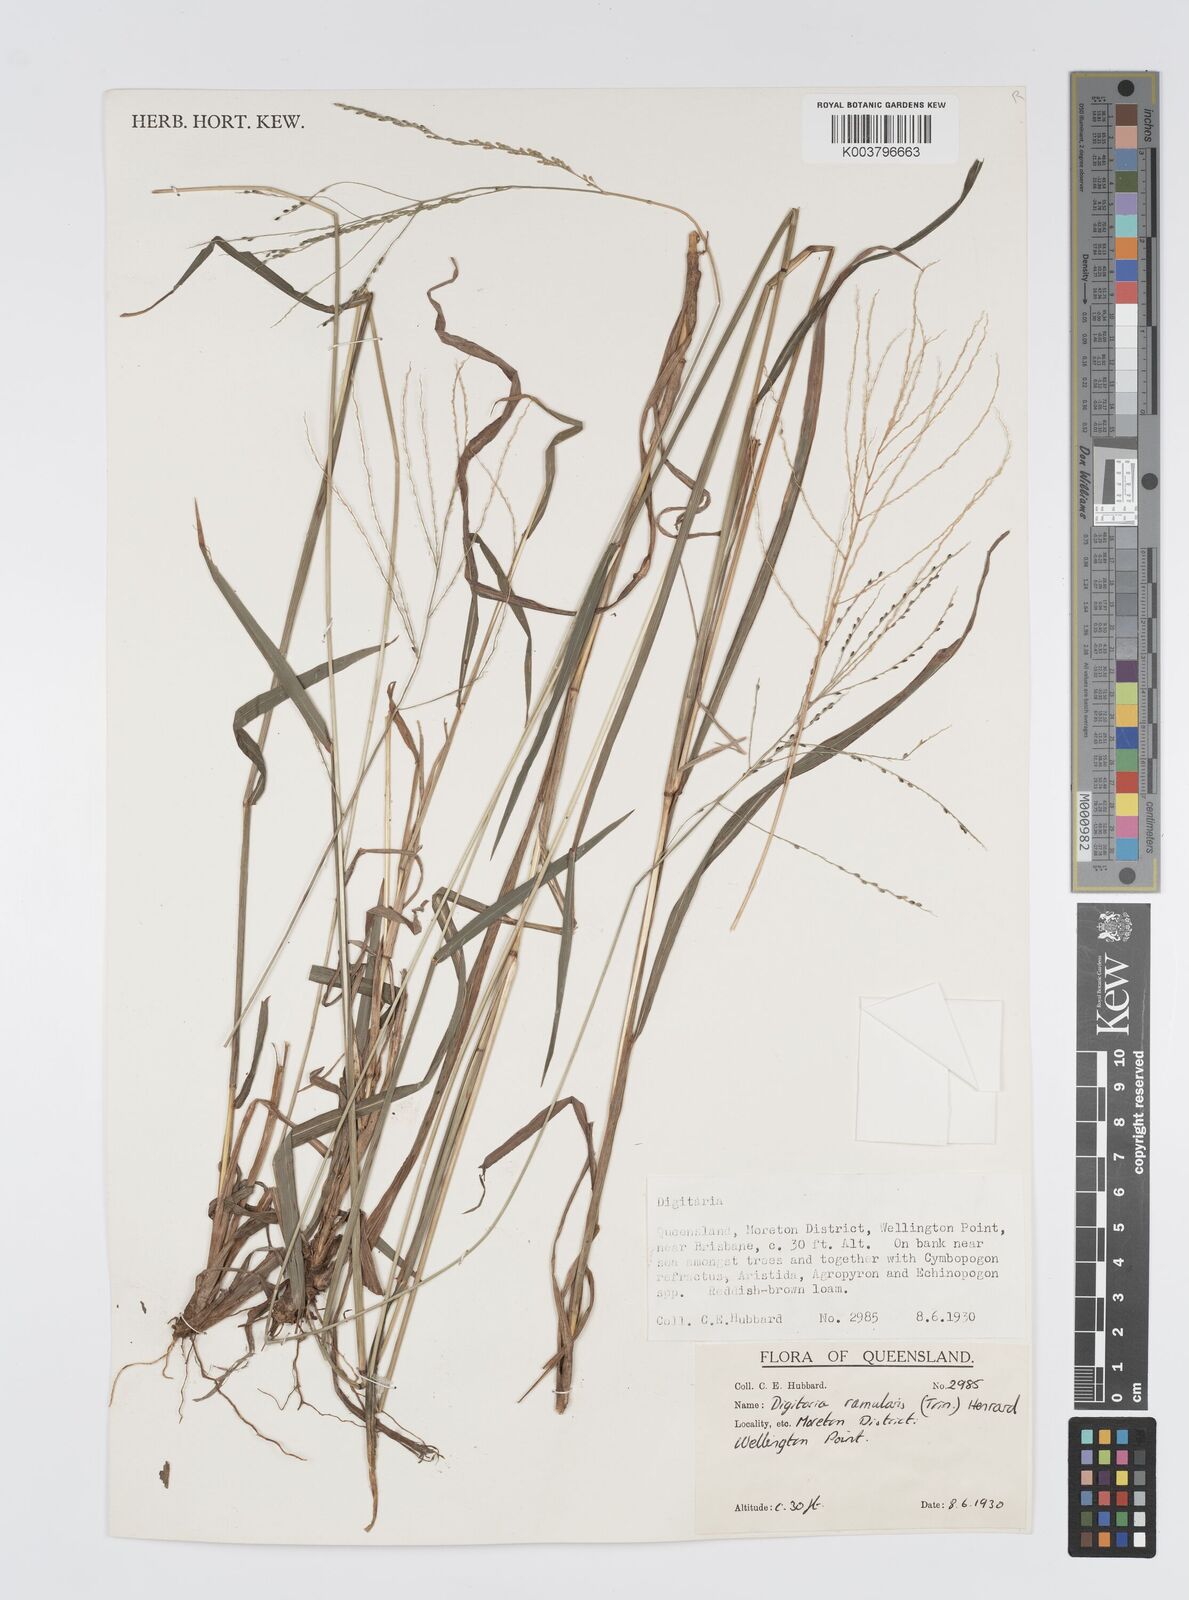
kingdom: Plantae
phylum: Tracheophyta
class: Liliopsida
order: Poales
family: Poaceae
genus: Digitaria
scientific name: Digitaria ramularis
